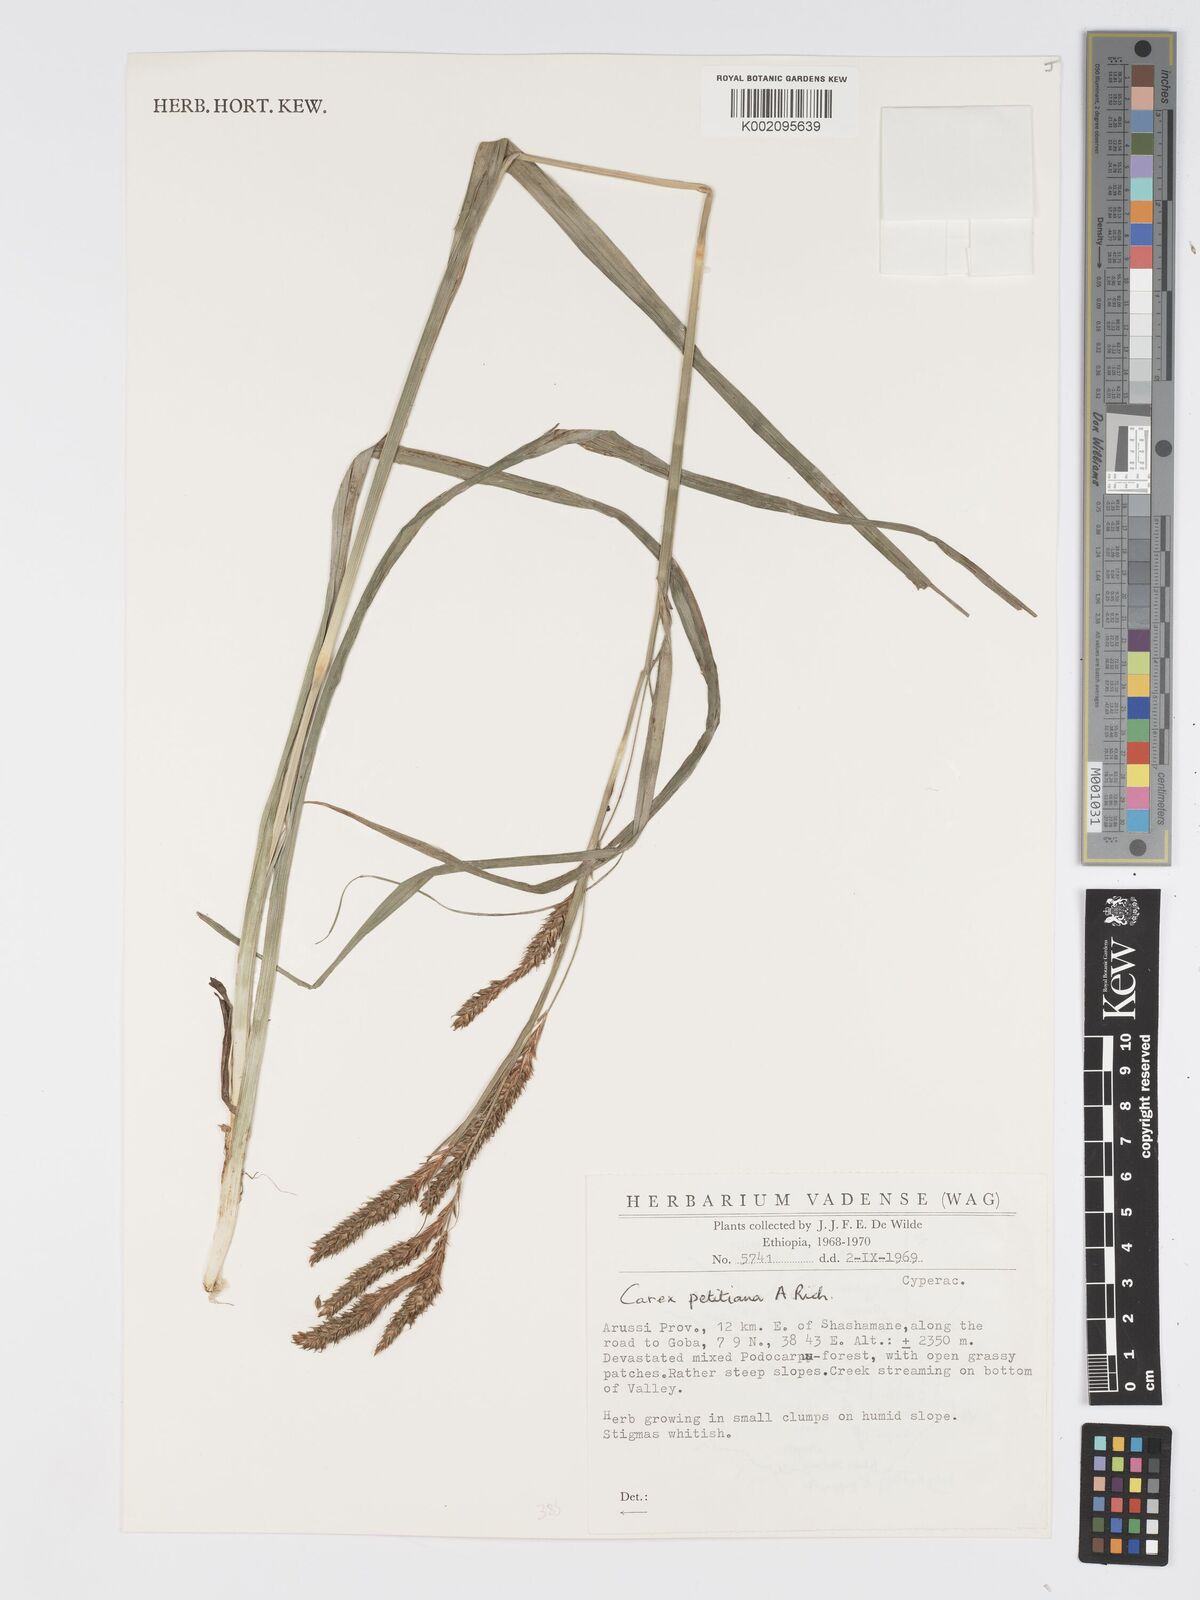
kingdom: Plantae
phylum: Tracheophyta
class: Liliopsida
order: Poales
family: Cyperaceae
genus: Carex
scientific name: Carex petitiana
